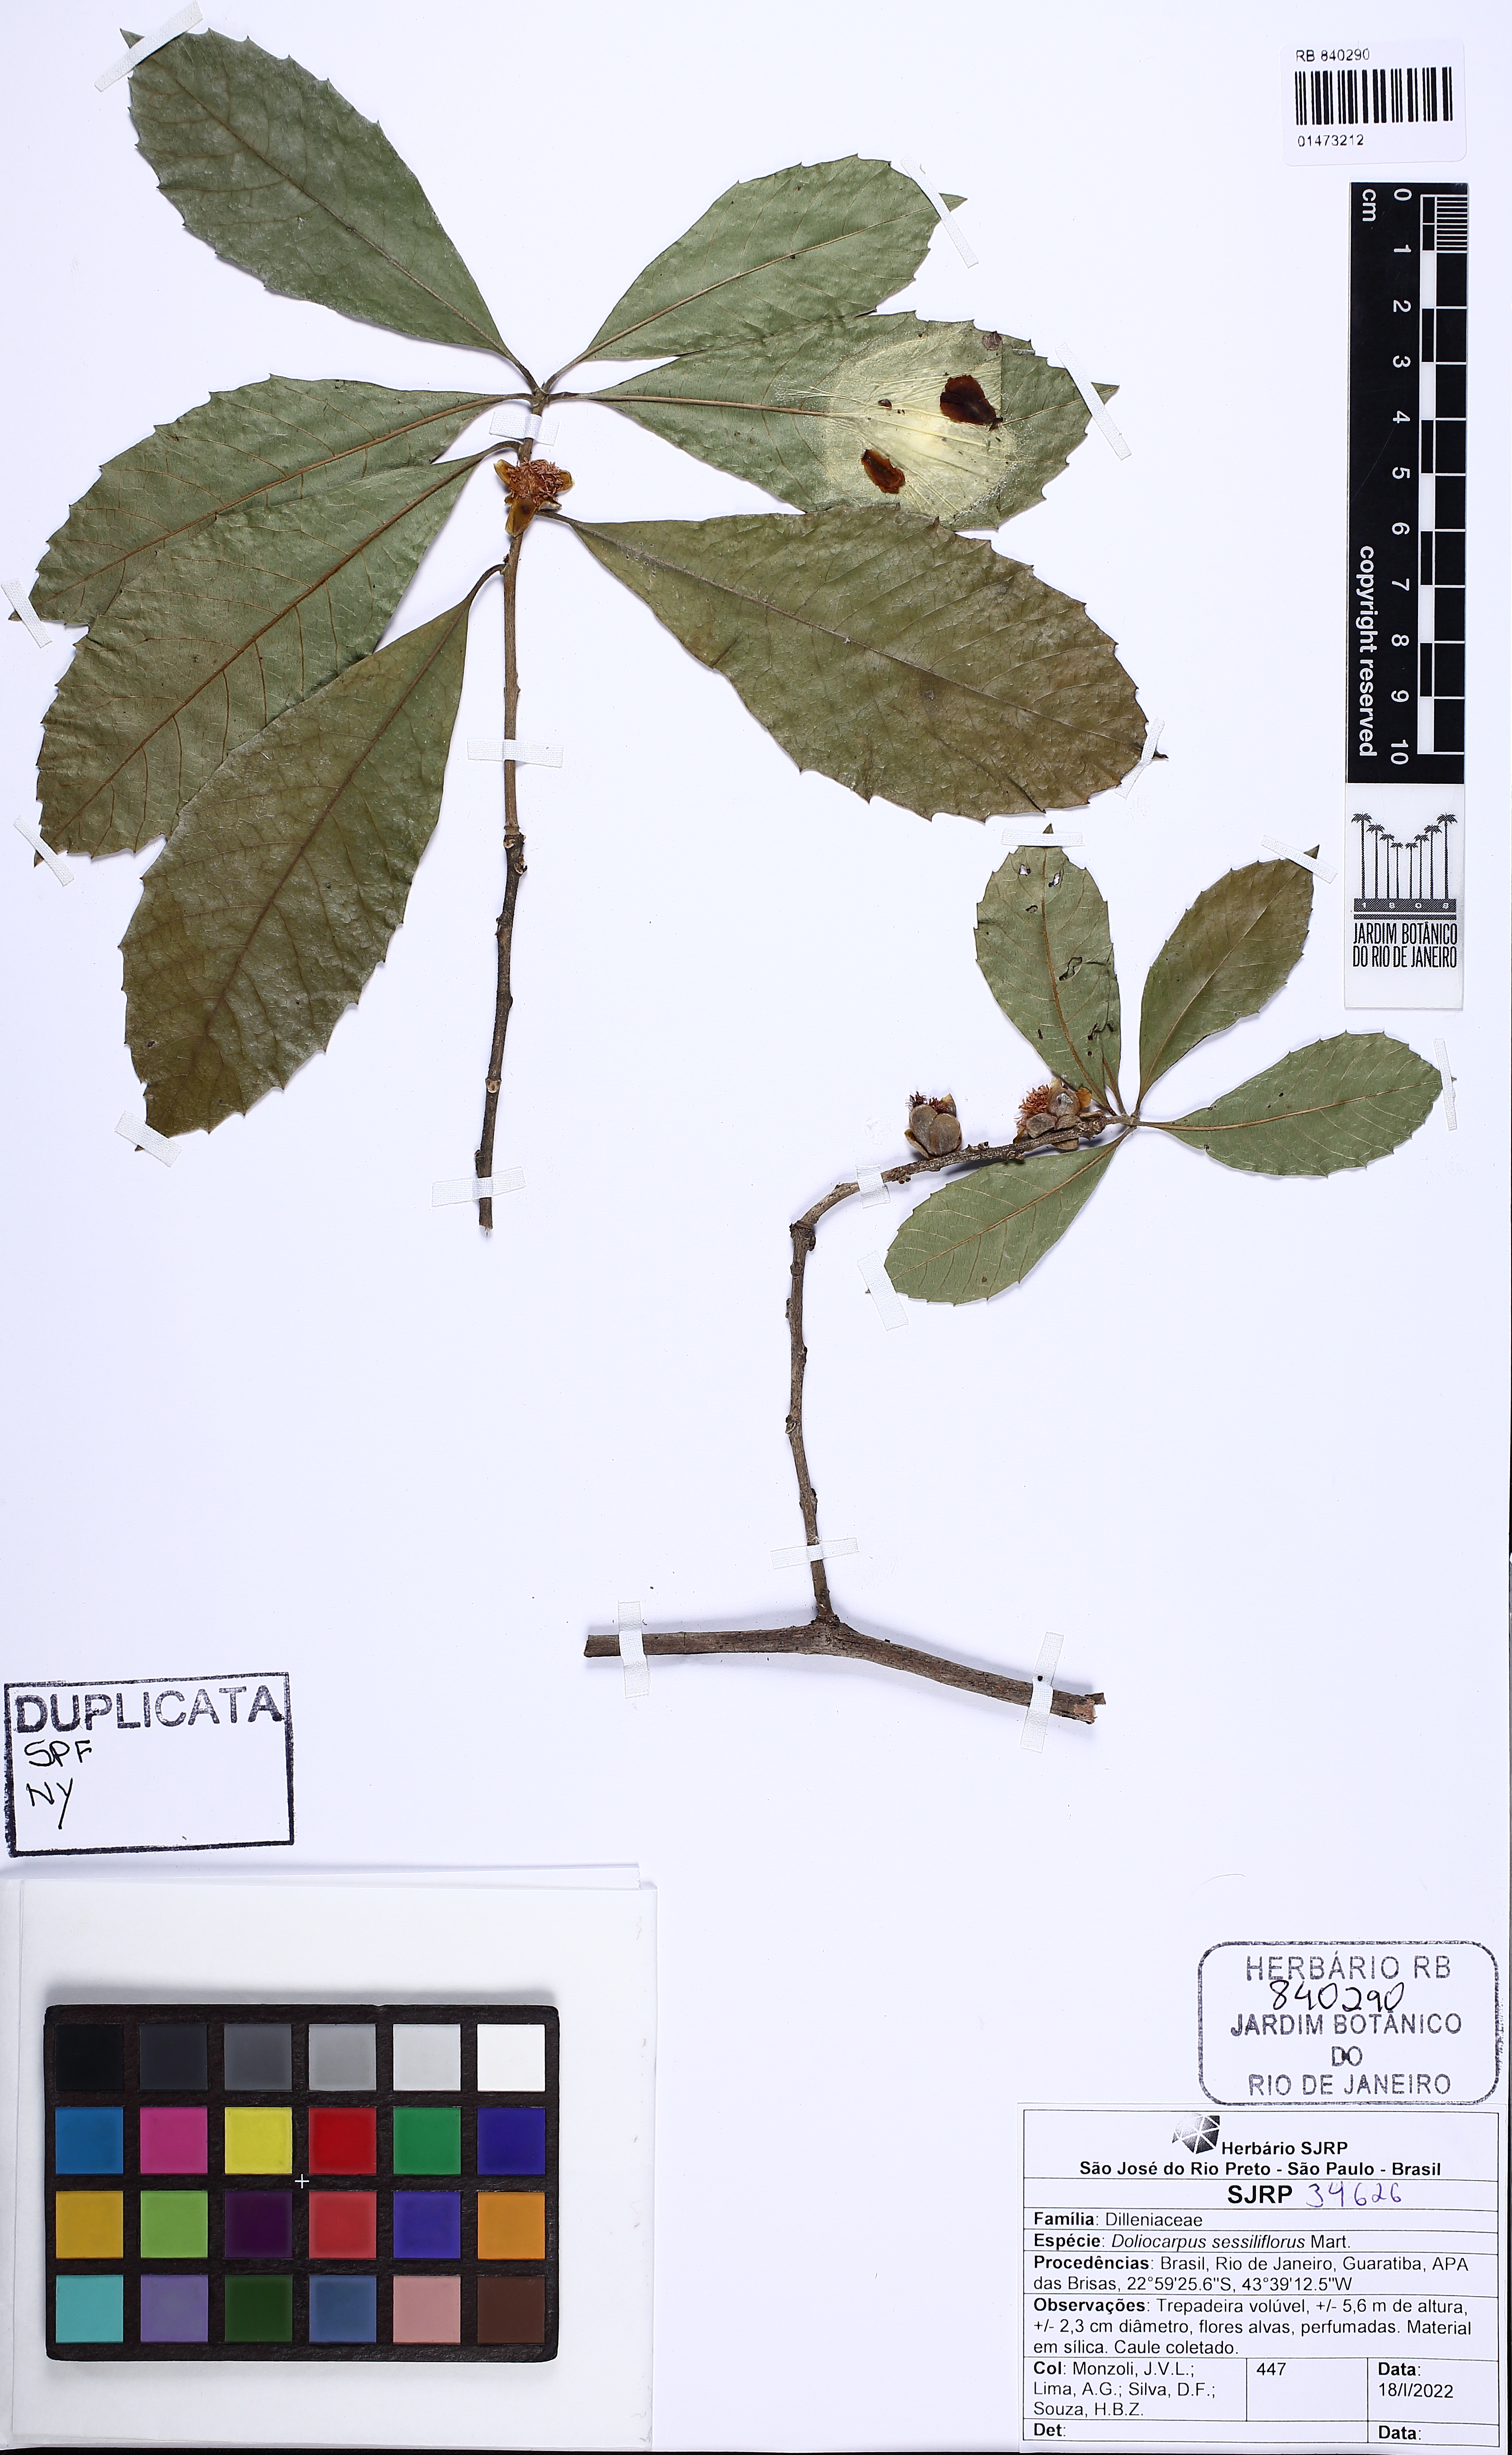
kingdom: Plantae
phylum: Tracheophyta
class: Magnoliopsida
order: Dilleniales
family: Dilleniaceae
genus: Doliocarpus
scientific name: Doliocarpus sessiliflorus
